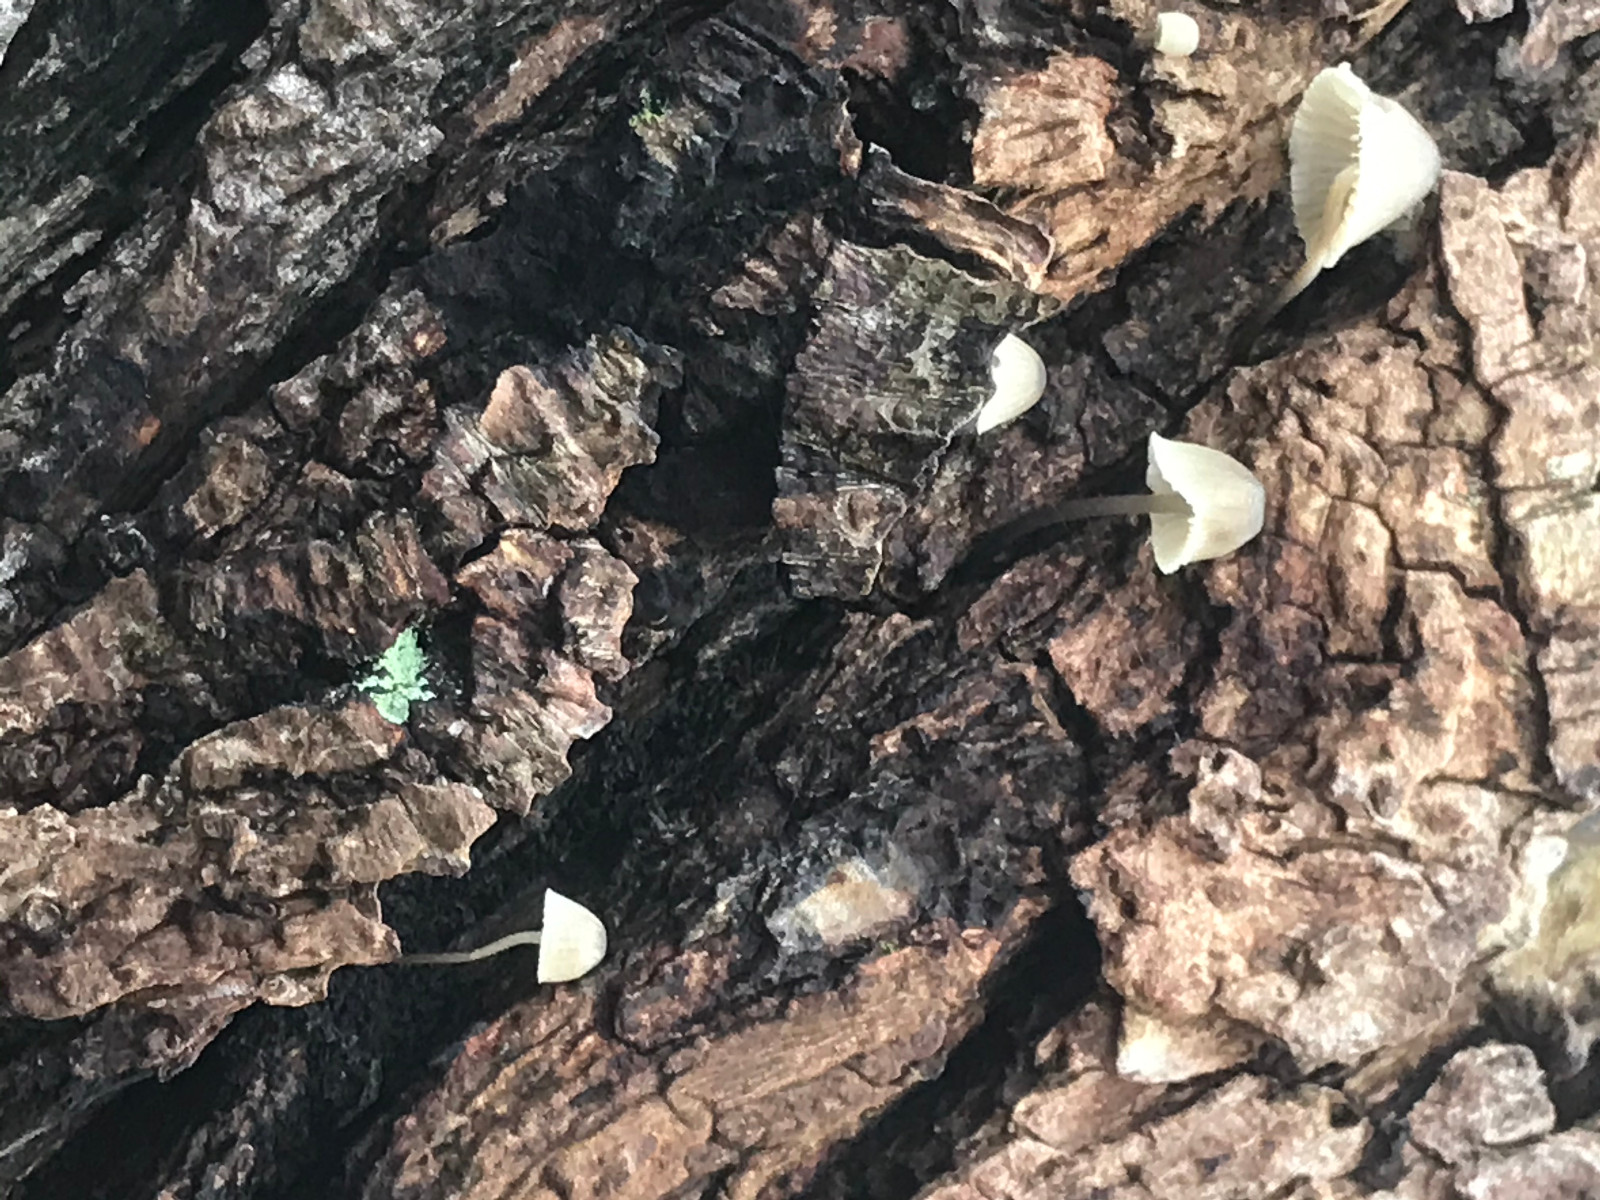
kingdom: Fungi
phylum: Basidiomycota
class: Agaricomycetes
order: Agaricales
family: Mycenaceae
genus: Mycena
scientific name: Mycena
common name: huesvamp
